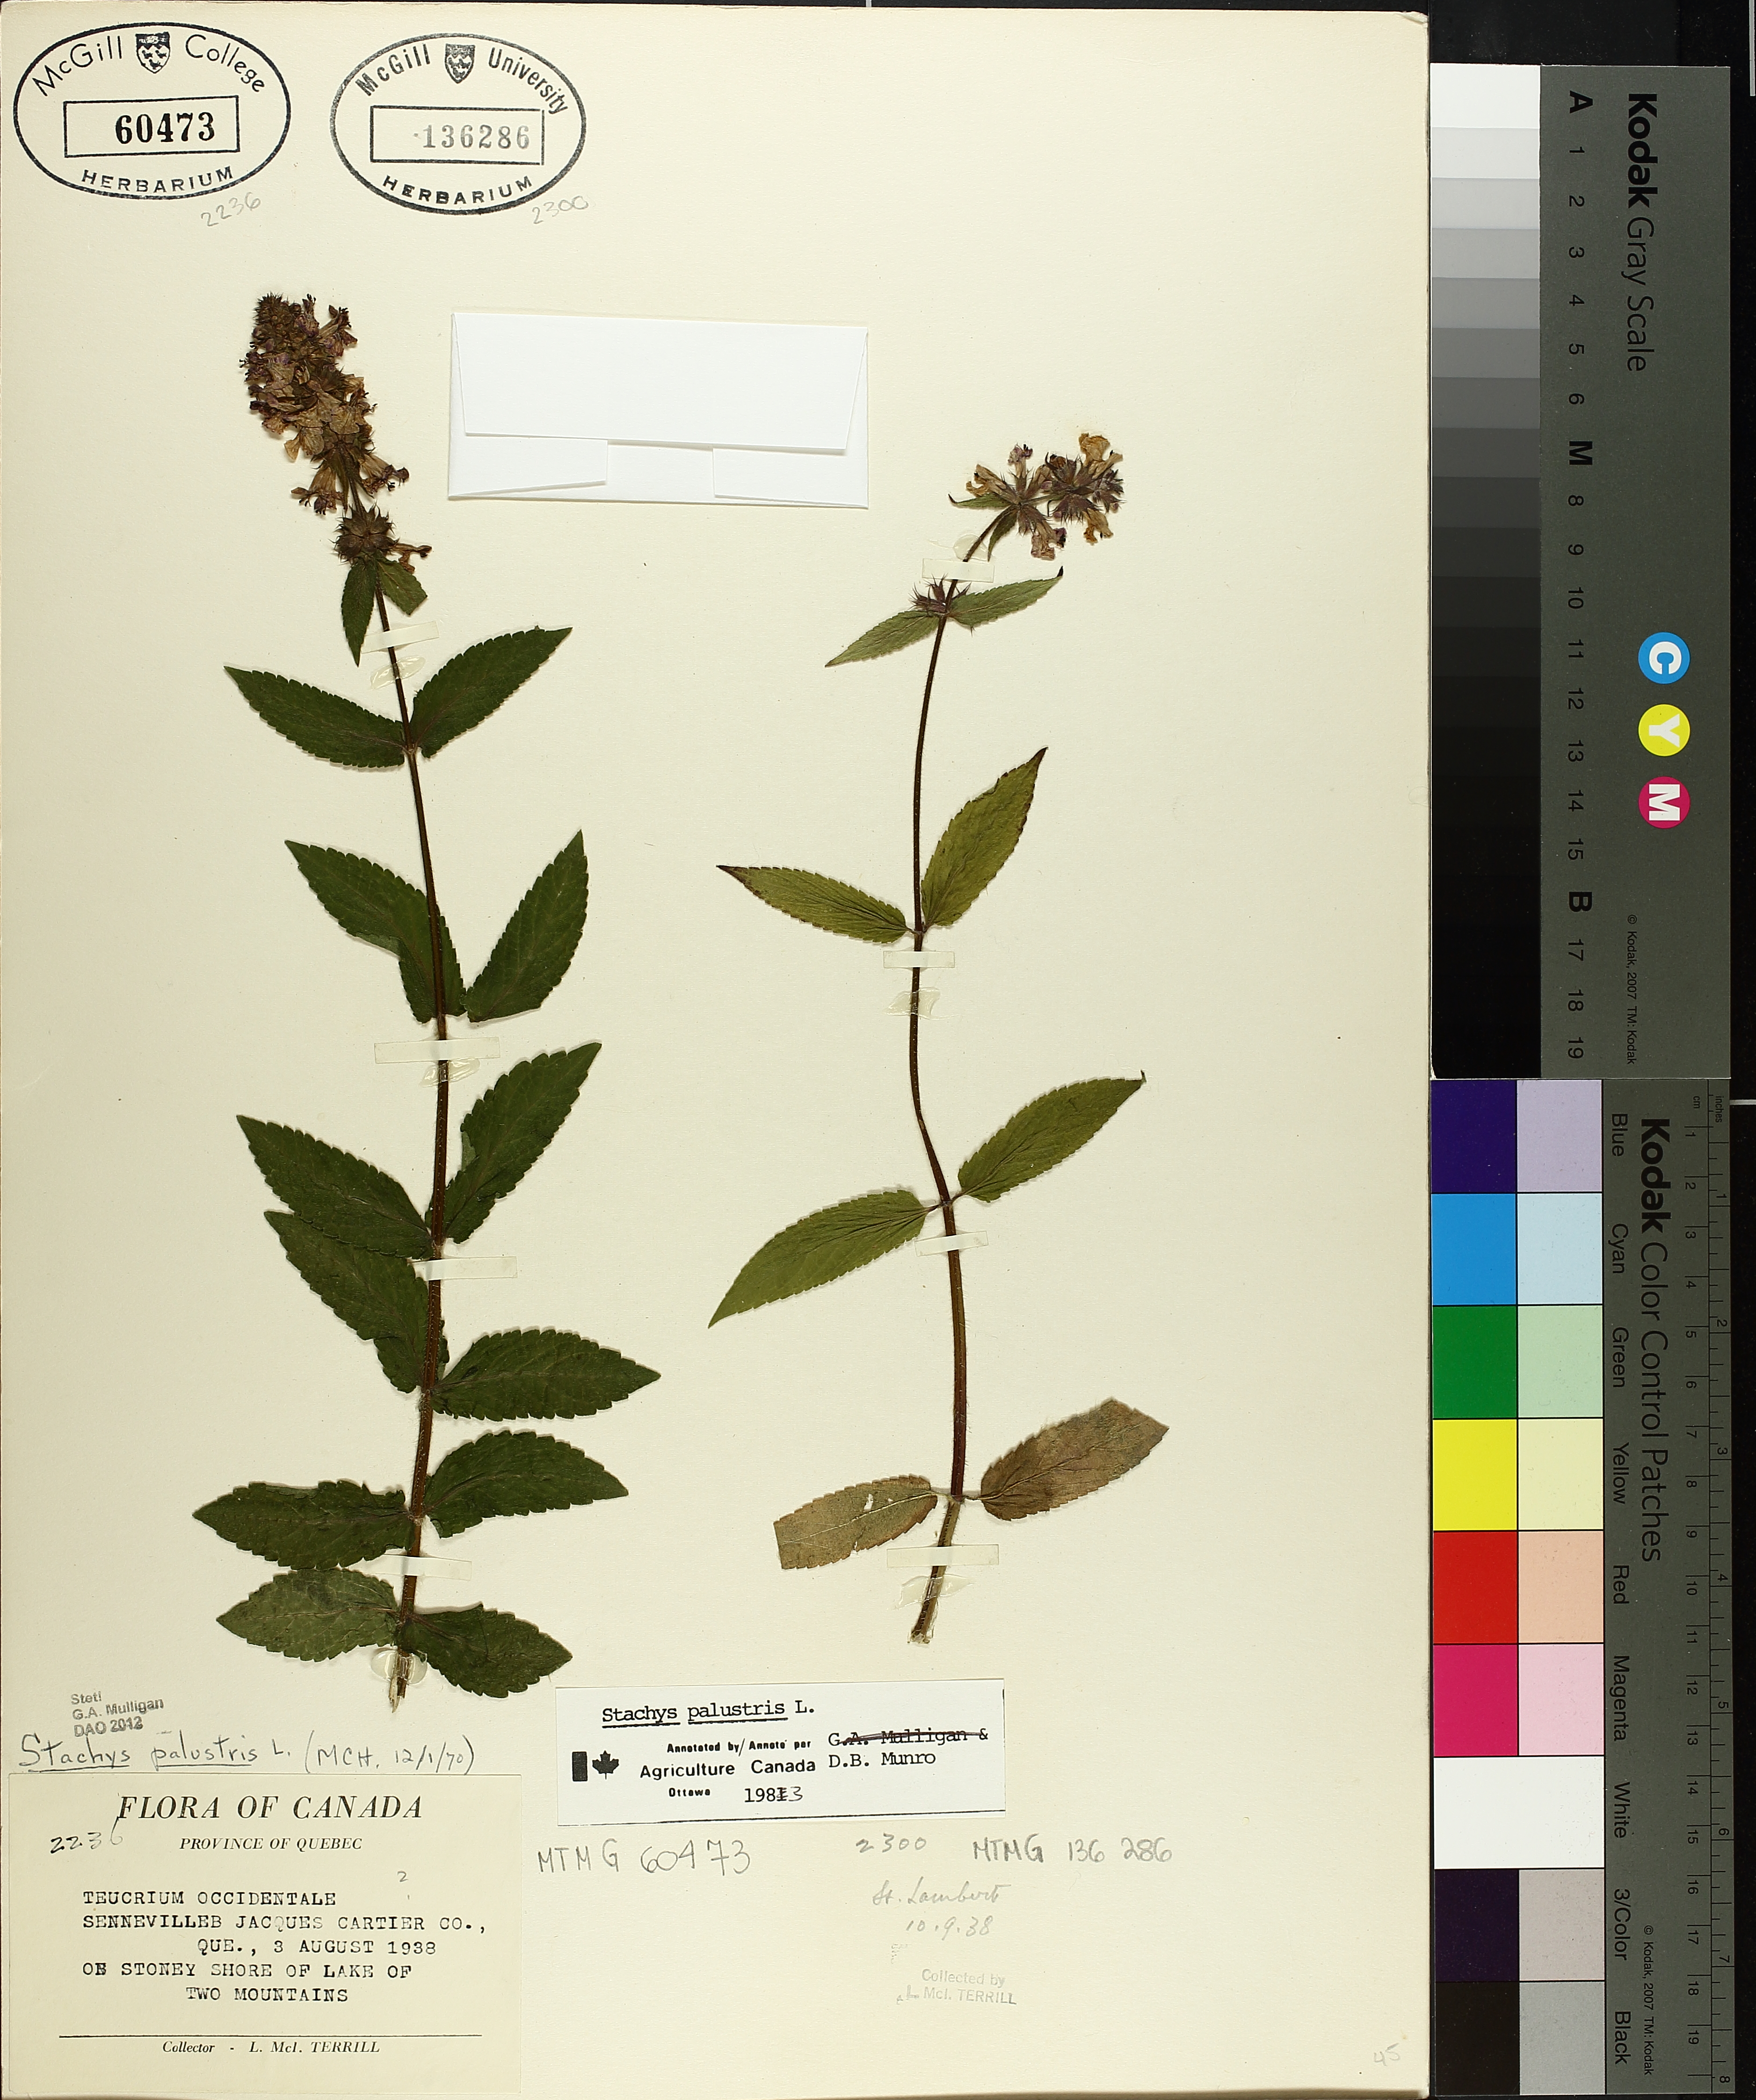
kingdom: Plantae
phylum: Tracheophyta
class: Magnoliopsida
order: Lamiales
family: Lamiaceae
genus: Stachys
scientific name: Stachys palustris
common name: Marsh woundwort
